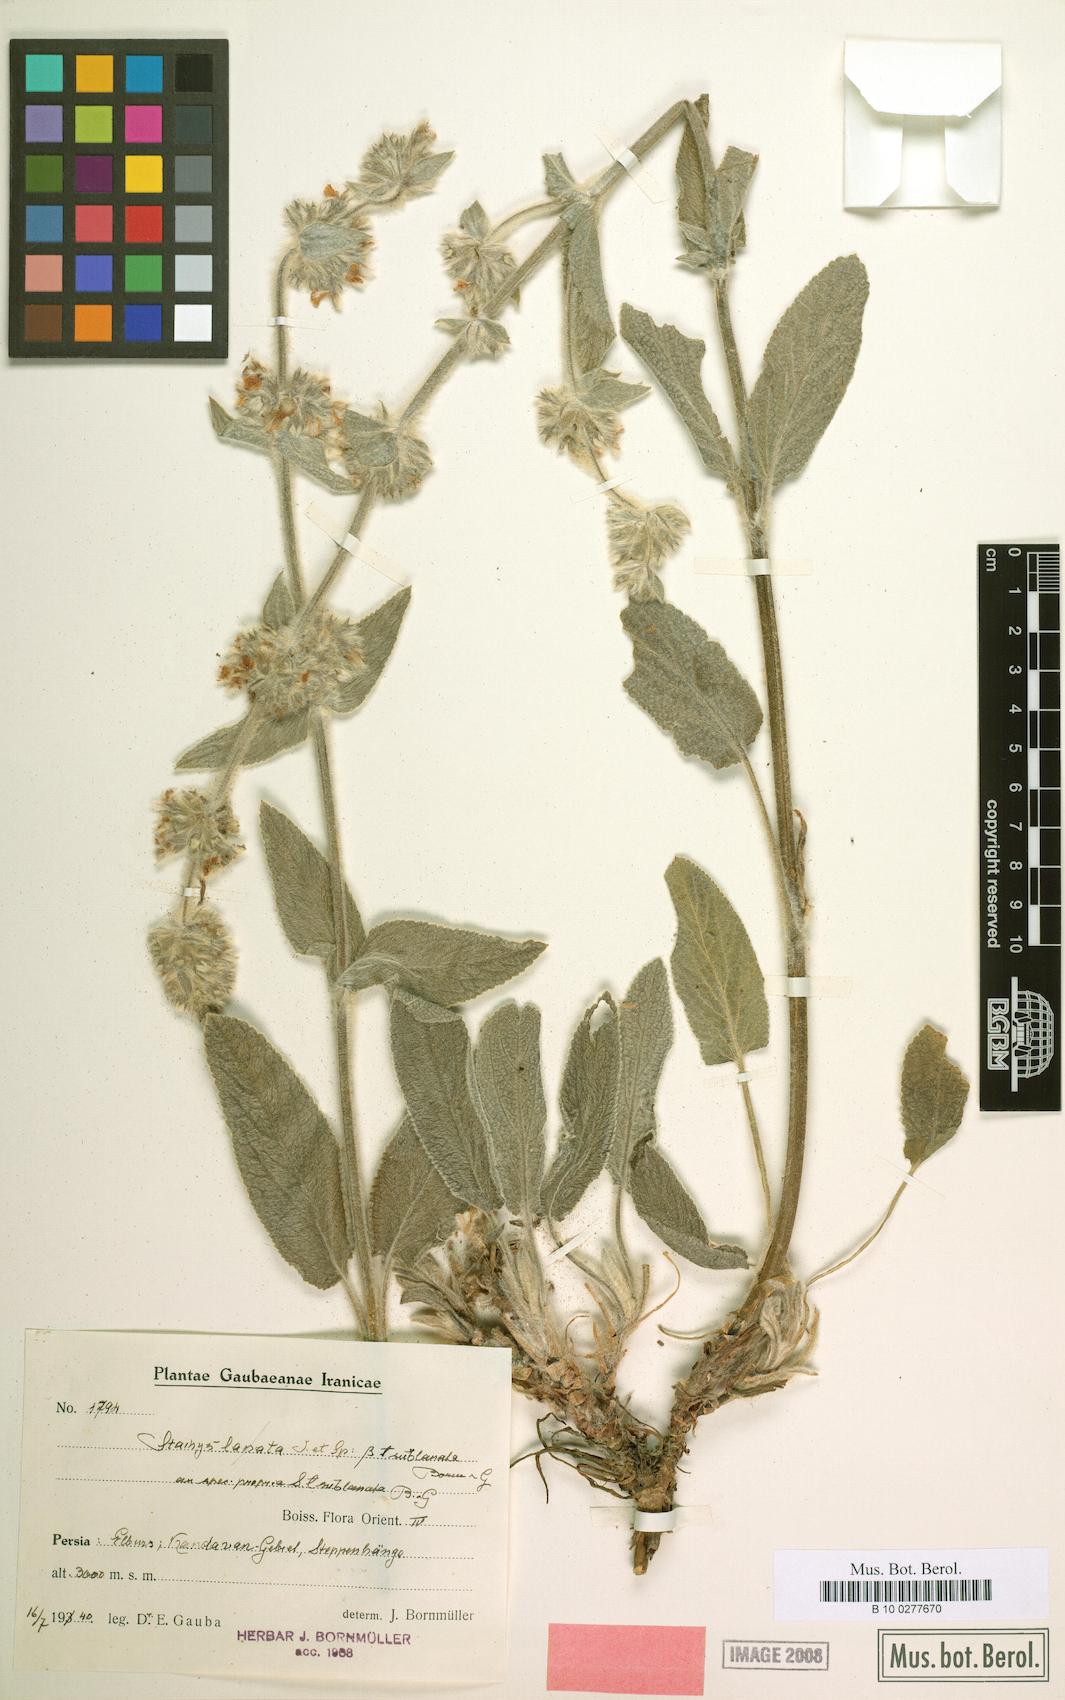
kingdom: Plantae
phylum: Tracheophyta
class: Magnoliopsida
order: Lamiales
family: Lamiaceae
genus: Stachys
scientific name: Stachys sublanata
